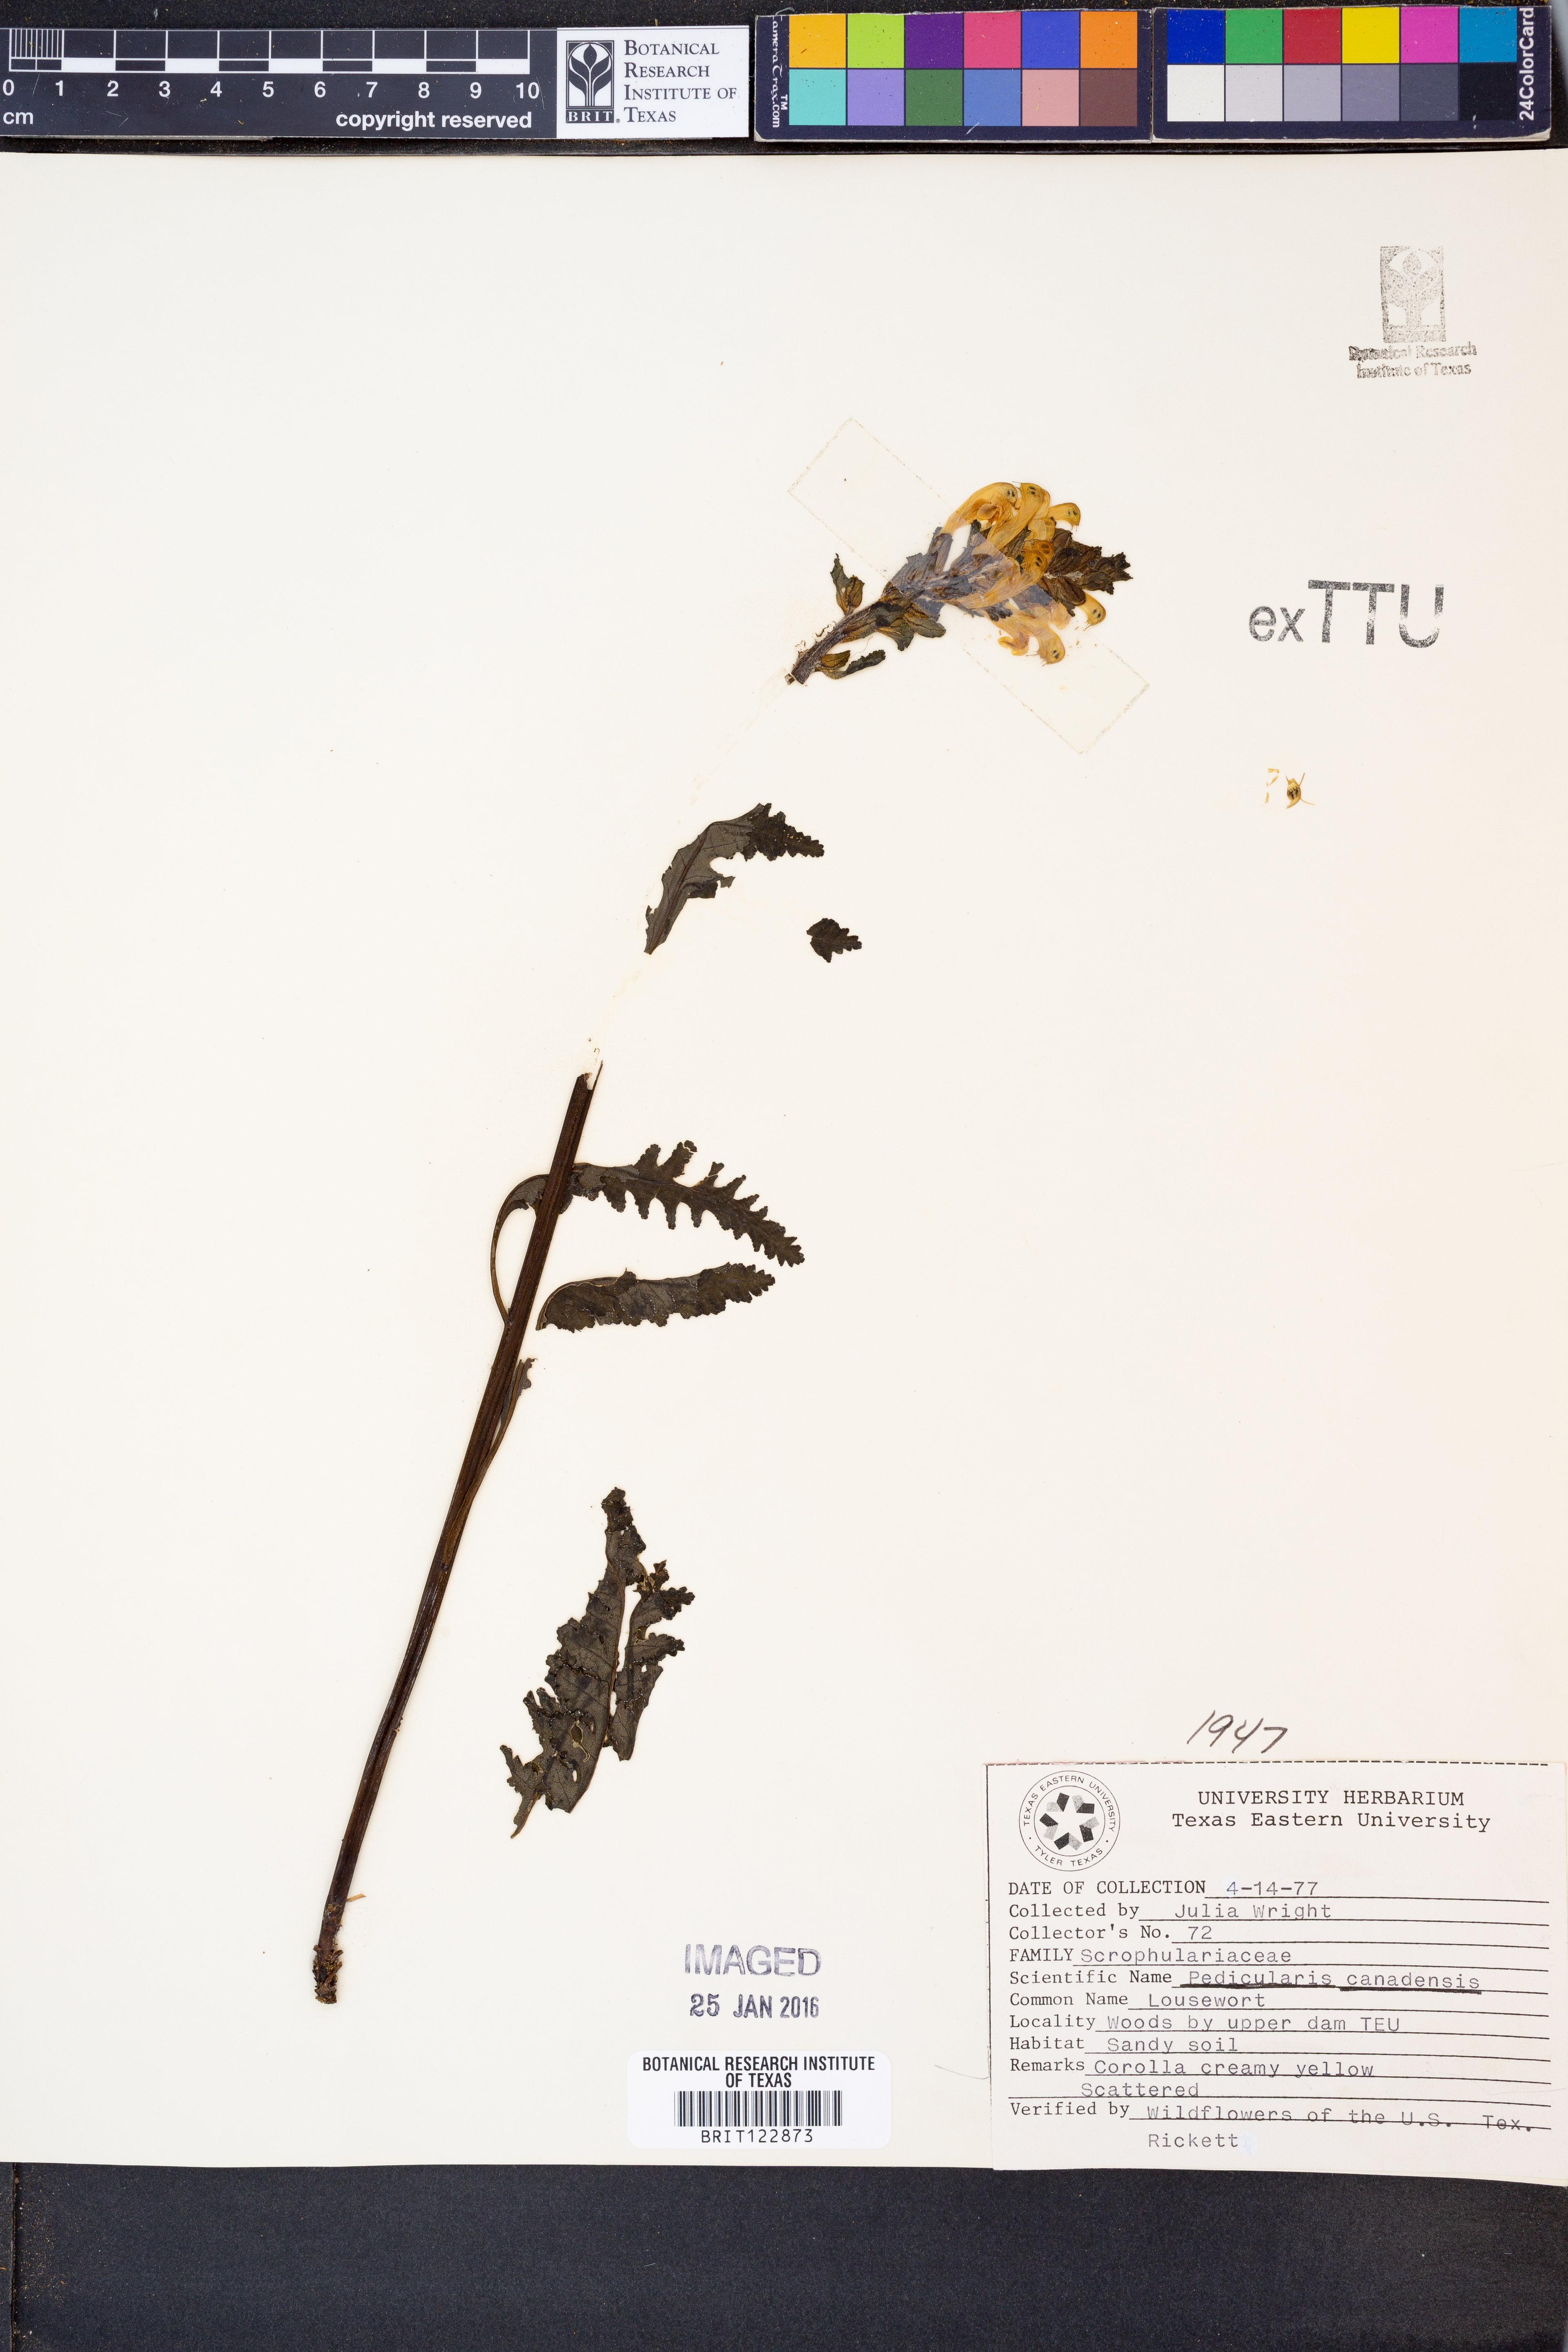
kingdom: Plantae
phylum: Tracheophyta
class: Magnoliopsida
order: Lamiales
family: Orobanchaceae
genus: Pedicularis
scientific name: Pedicularis canadensis
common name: Early lousewort
